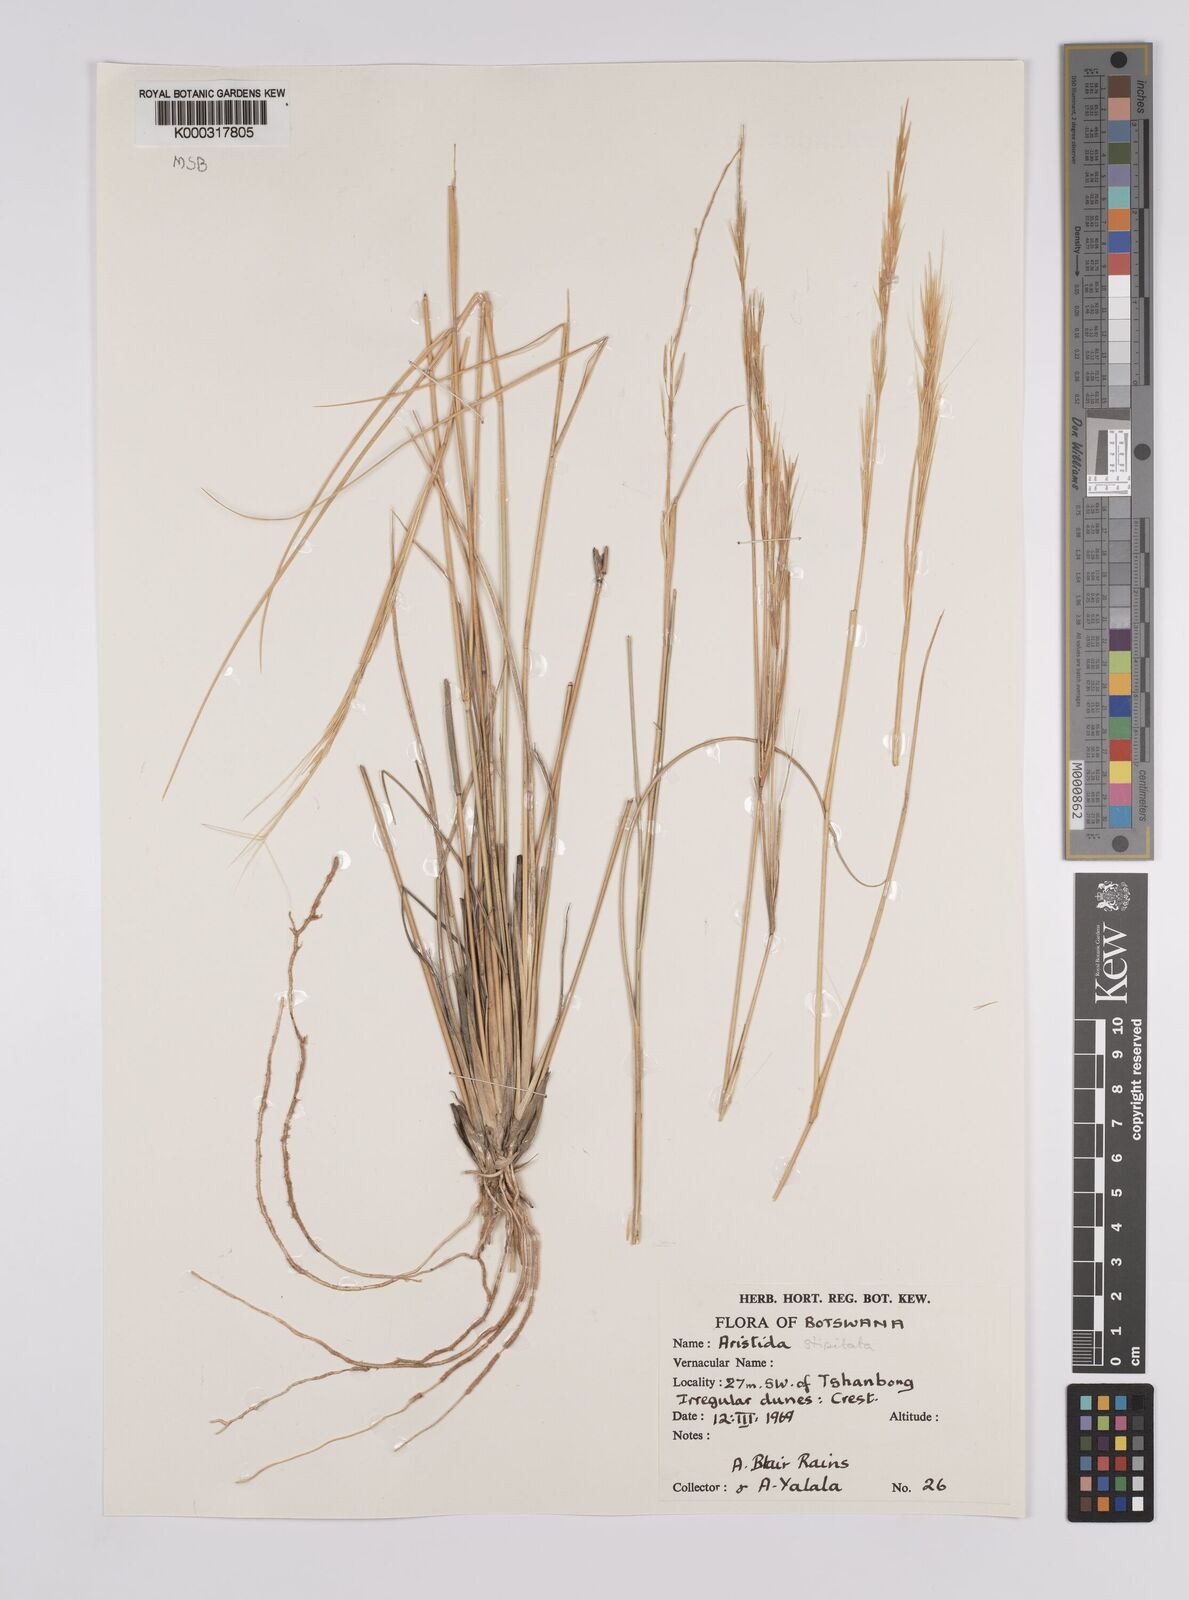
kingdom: Plantae
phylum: Tracheophyta
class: Liliopsida
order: Poales
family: Poaceae
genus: Aristida
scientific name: Aristida stipitata
